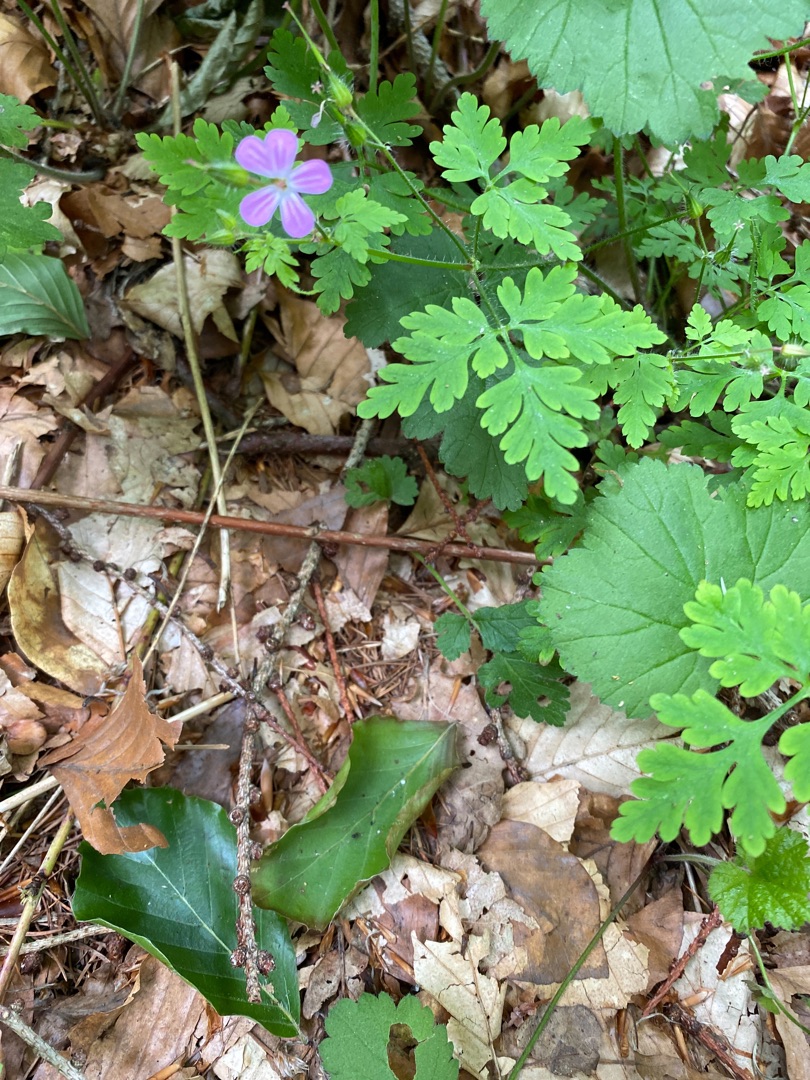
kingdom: Plantae
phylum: Tracheophyta
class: Magnoliopsida
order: Geraniales
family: Geraniaceae
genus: Geranium
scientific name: Geranium robertianum
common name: Stinkende storkenæb
